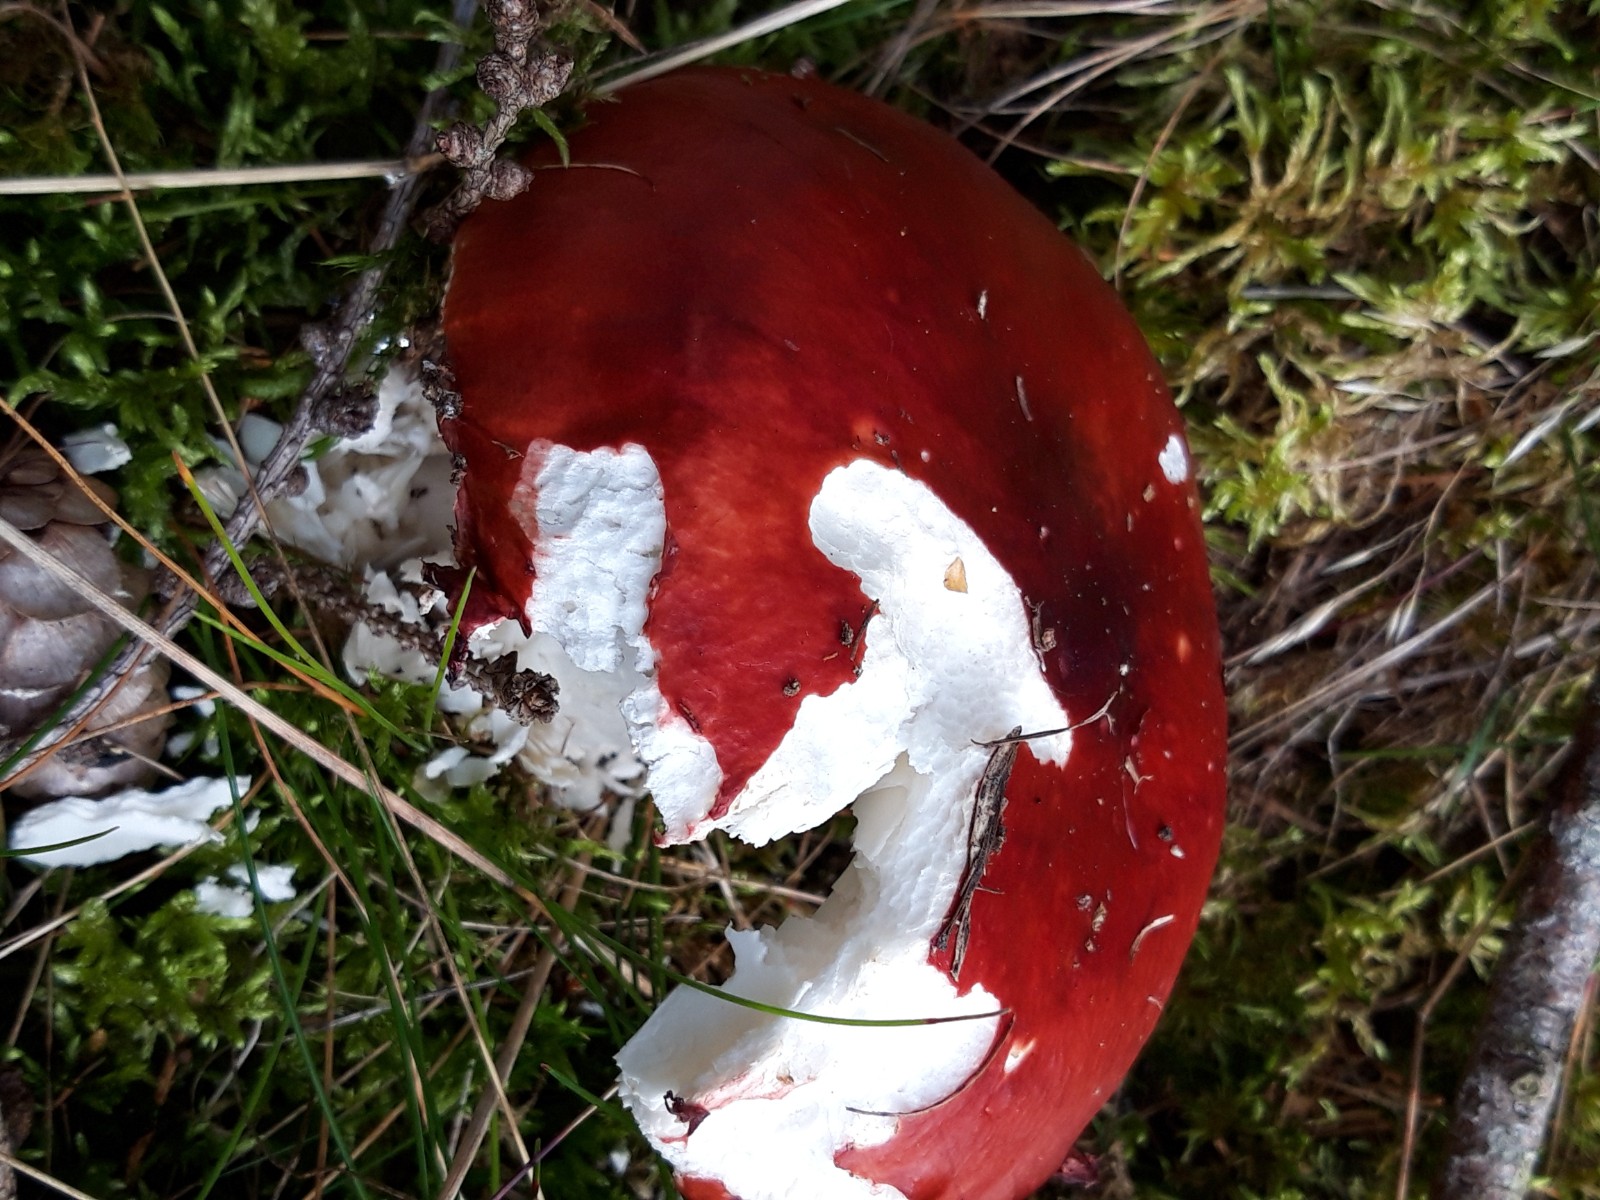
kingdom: Fungi
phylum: Basidiomycota
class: Agaricomycetes
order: Russulales
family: Russulaceae
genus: Russula
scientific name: Russula
